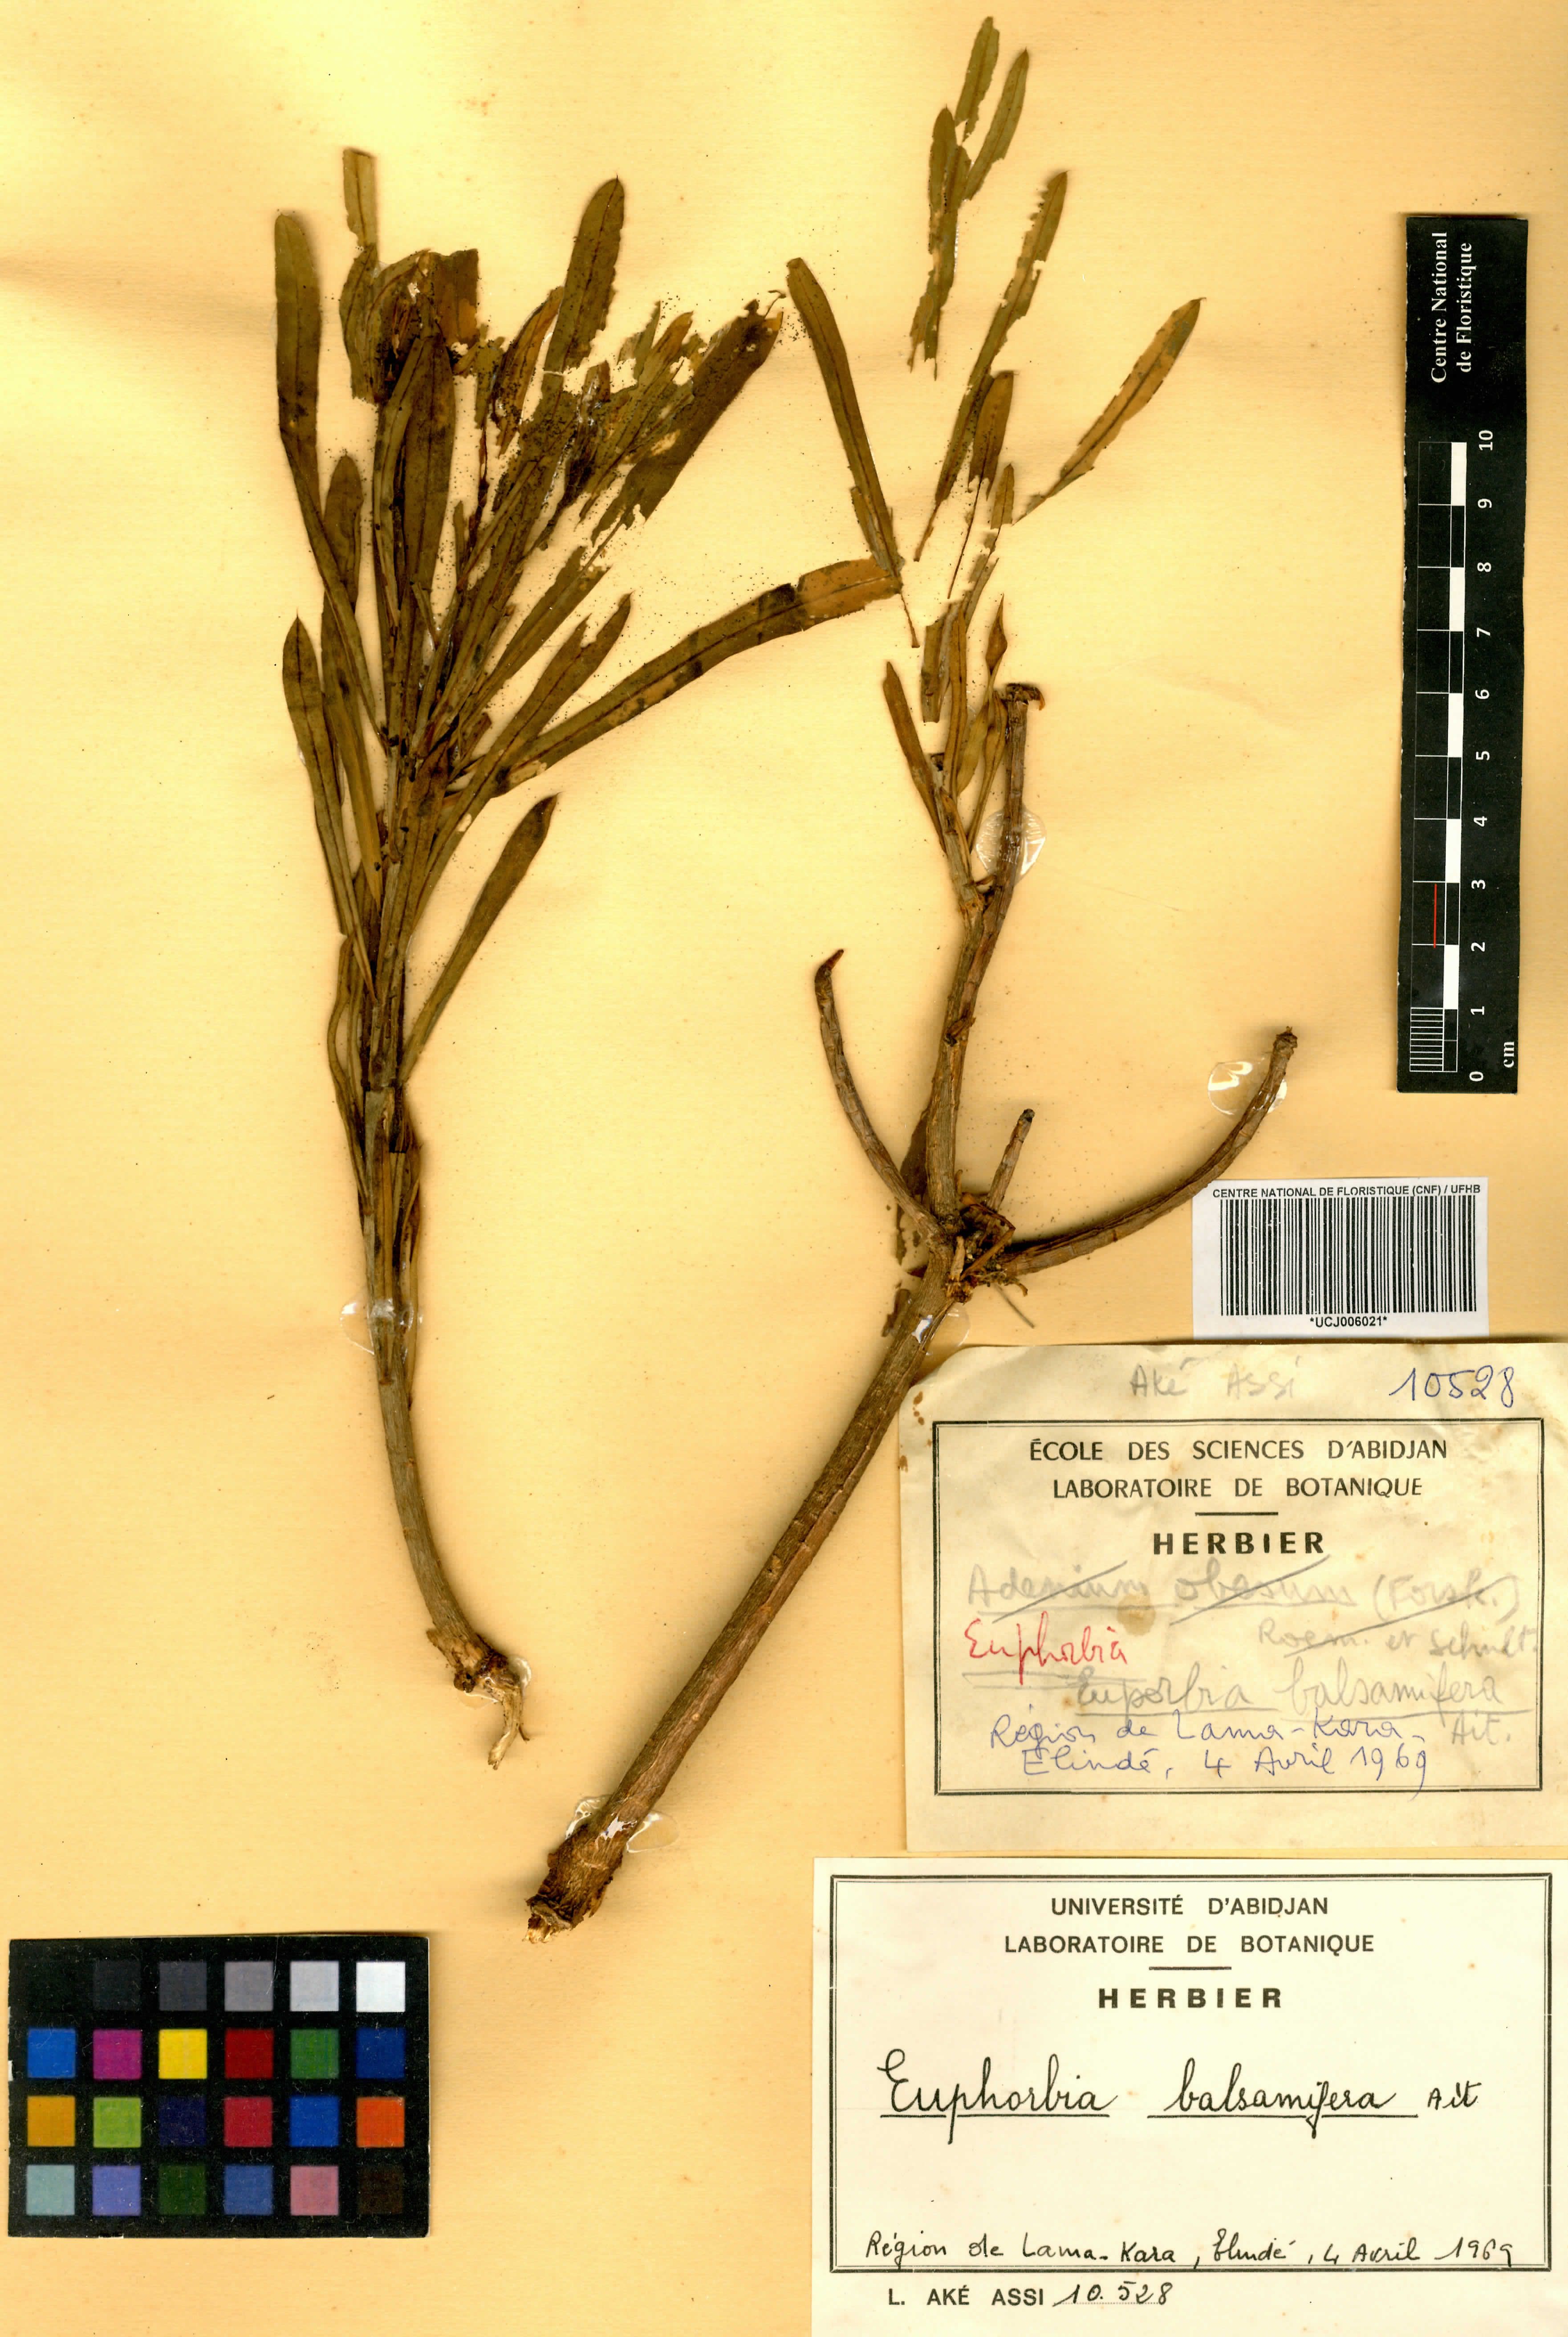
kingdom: Plantae
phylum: Tracheophyta
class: Magnoliopsida
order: Malpighiales
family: Euphorbiaceae
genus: Euphorbia
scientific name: Euphorbia balsamifera
